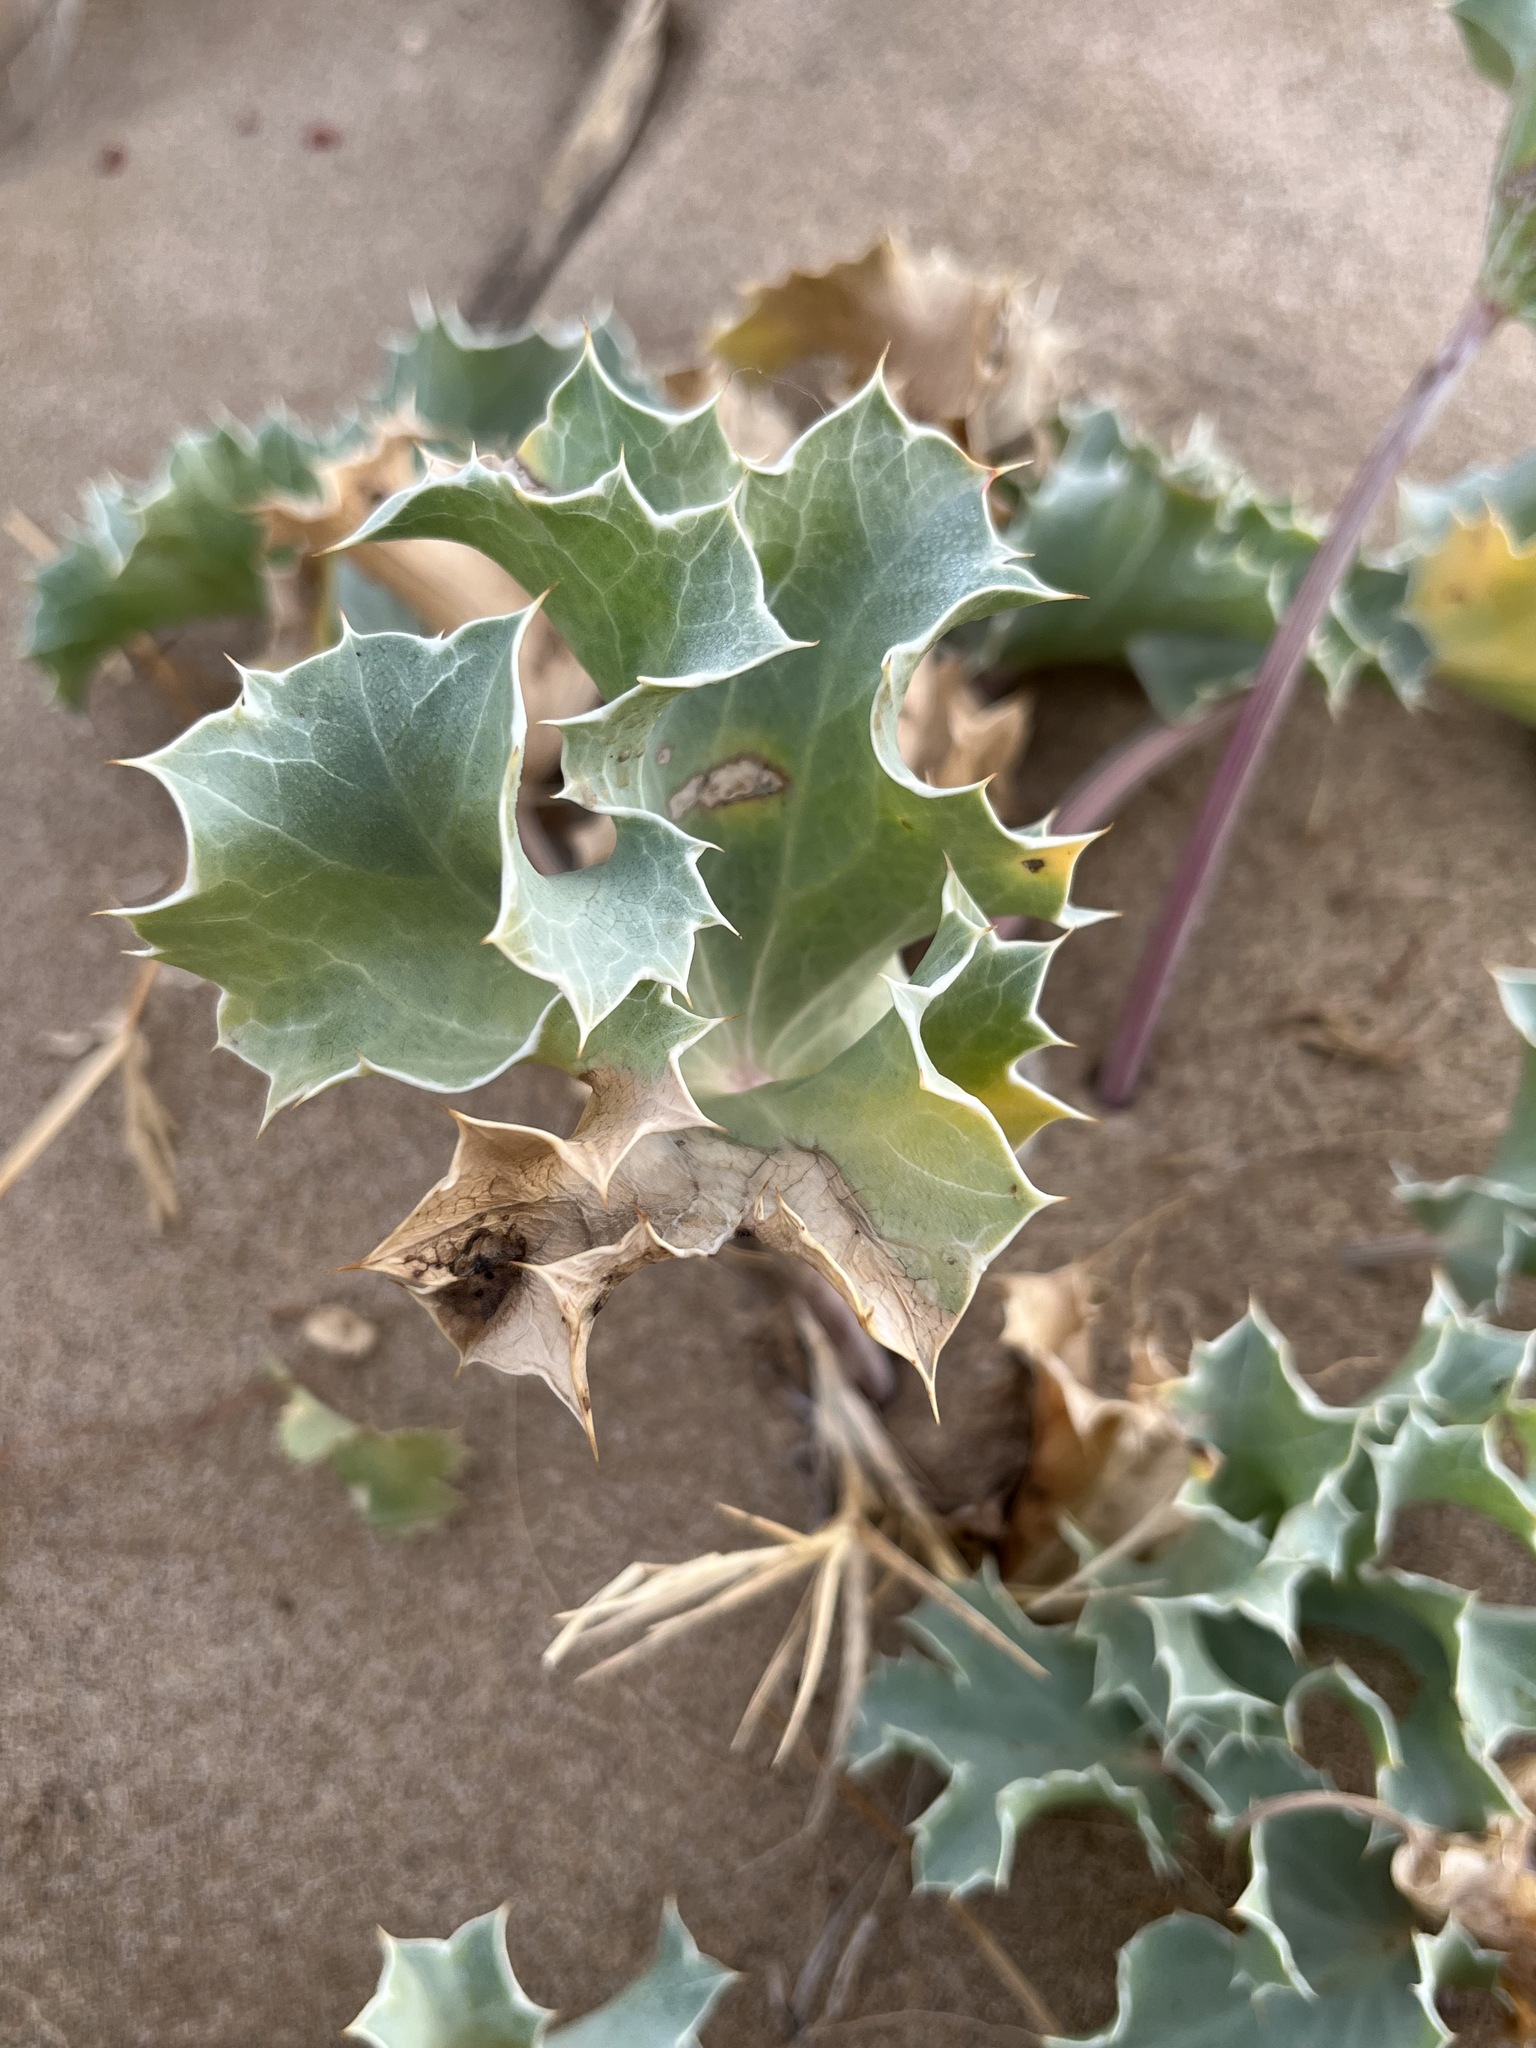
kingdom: Plantae
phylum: Tracheophyta
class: Magnoliopsida
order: Apiales
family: Apiaceae
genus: Eryngium
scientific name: Eryngium maritimum
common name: Sea-holly
